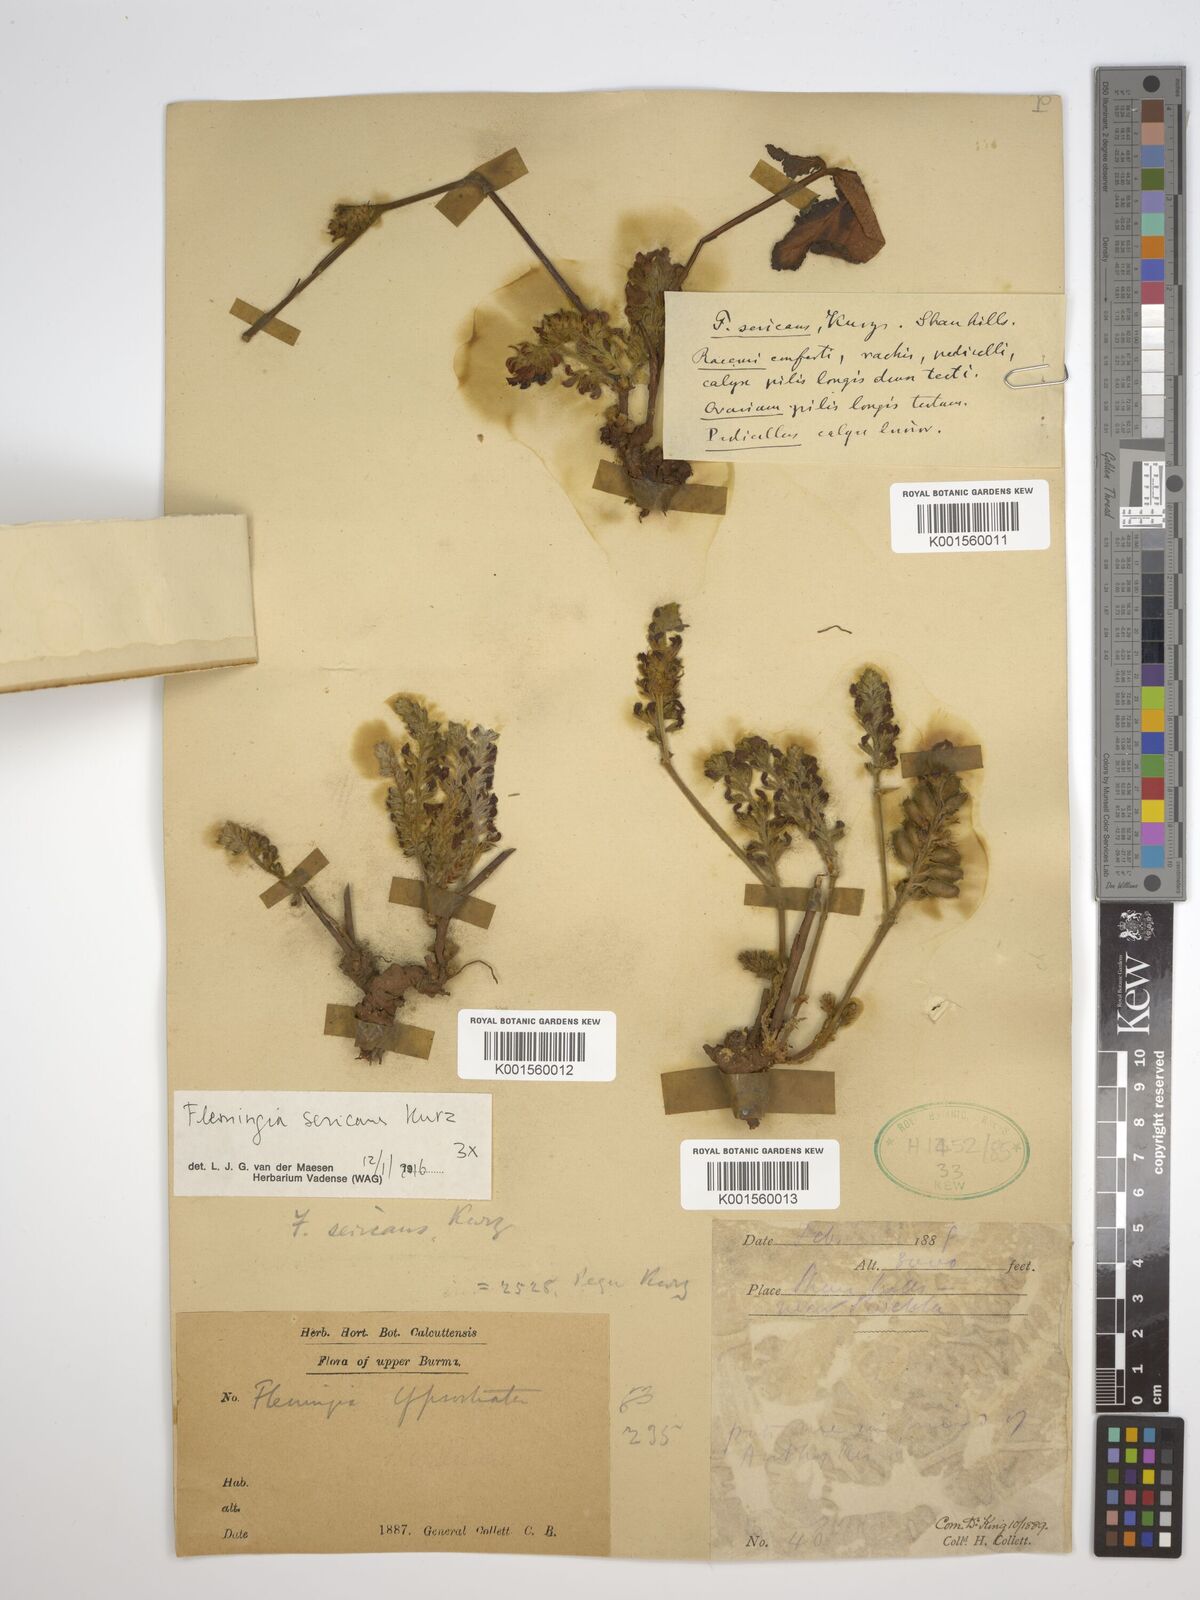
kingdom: Plantae
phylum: Tracheophyta
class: Magnoliopsida
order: Fabales
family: Fabaceae
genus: Flemingia
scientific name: Flemingia macrophylla
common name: Flemingia
